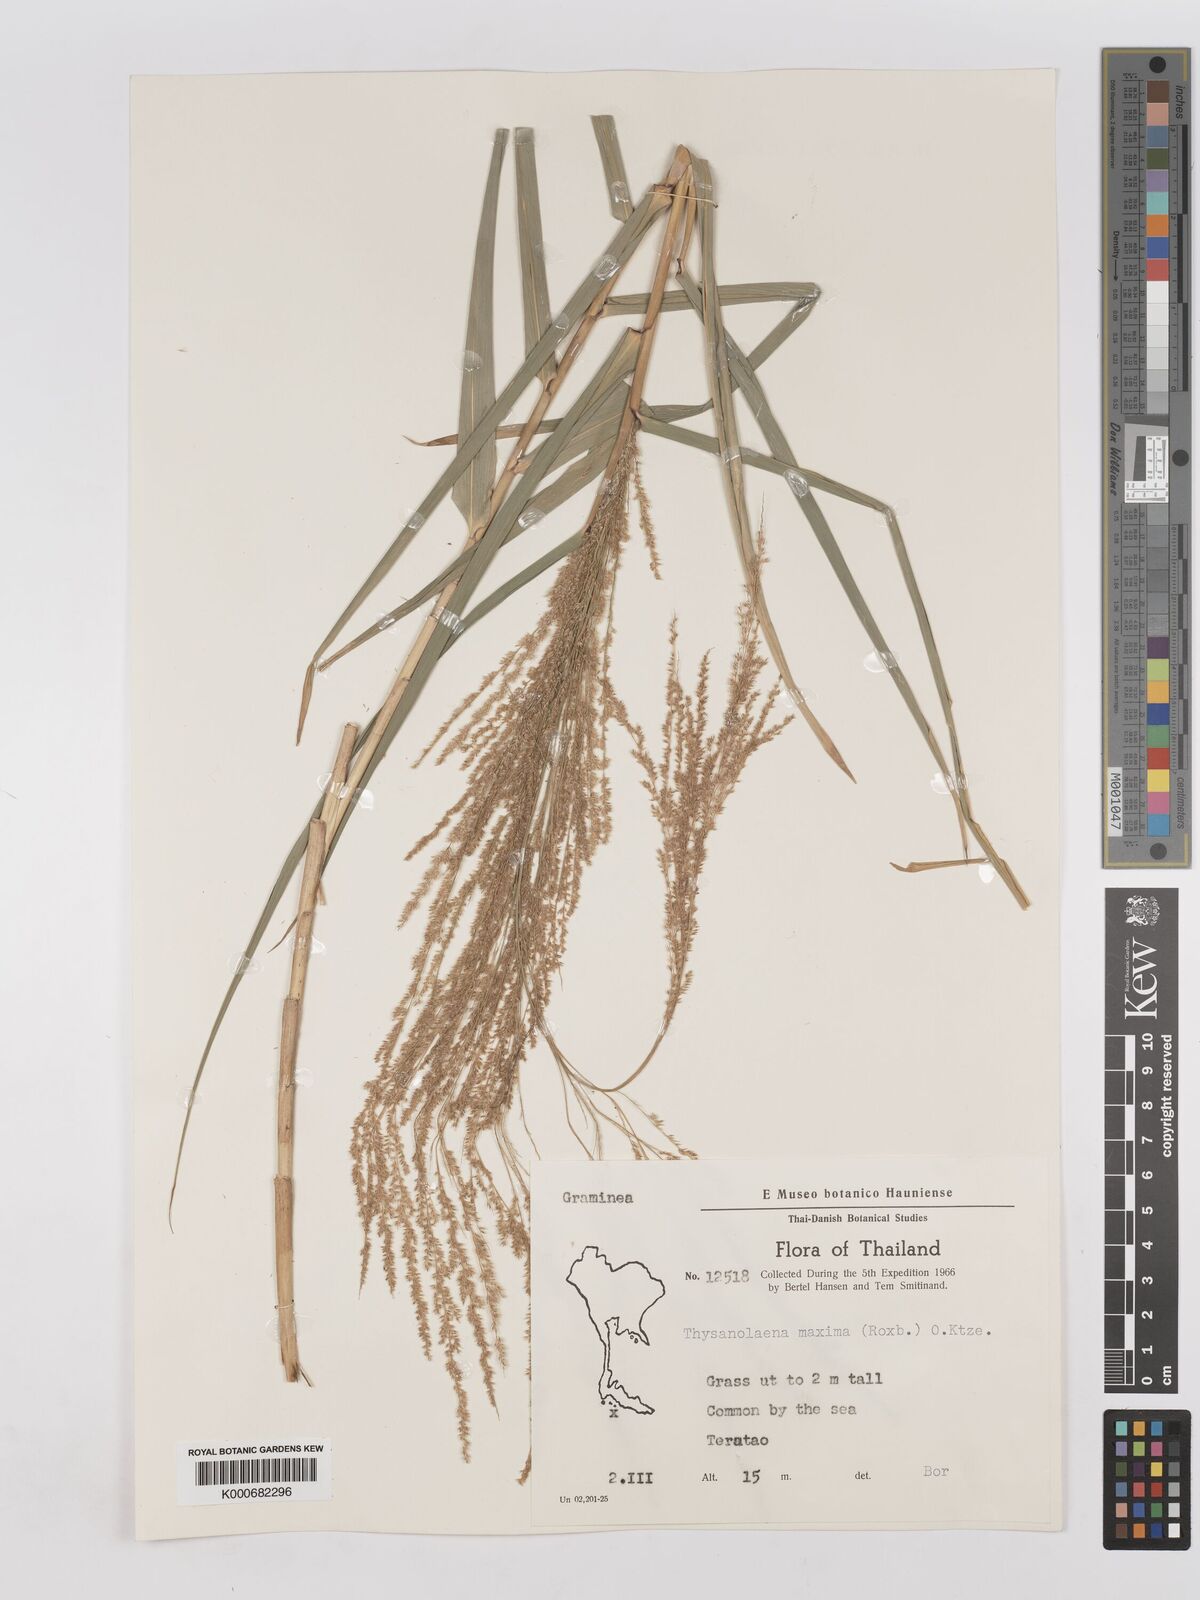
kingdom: Plantae
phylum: Tracheophyta
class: Liliopsida
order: Poales
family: Poaceae
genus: Thysanolaena
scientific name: Thysanolaena latifolia
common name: Tiger grass
